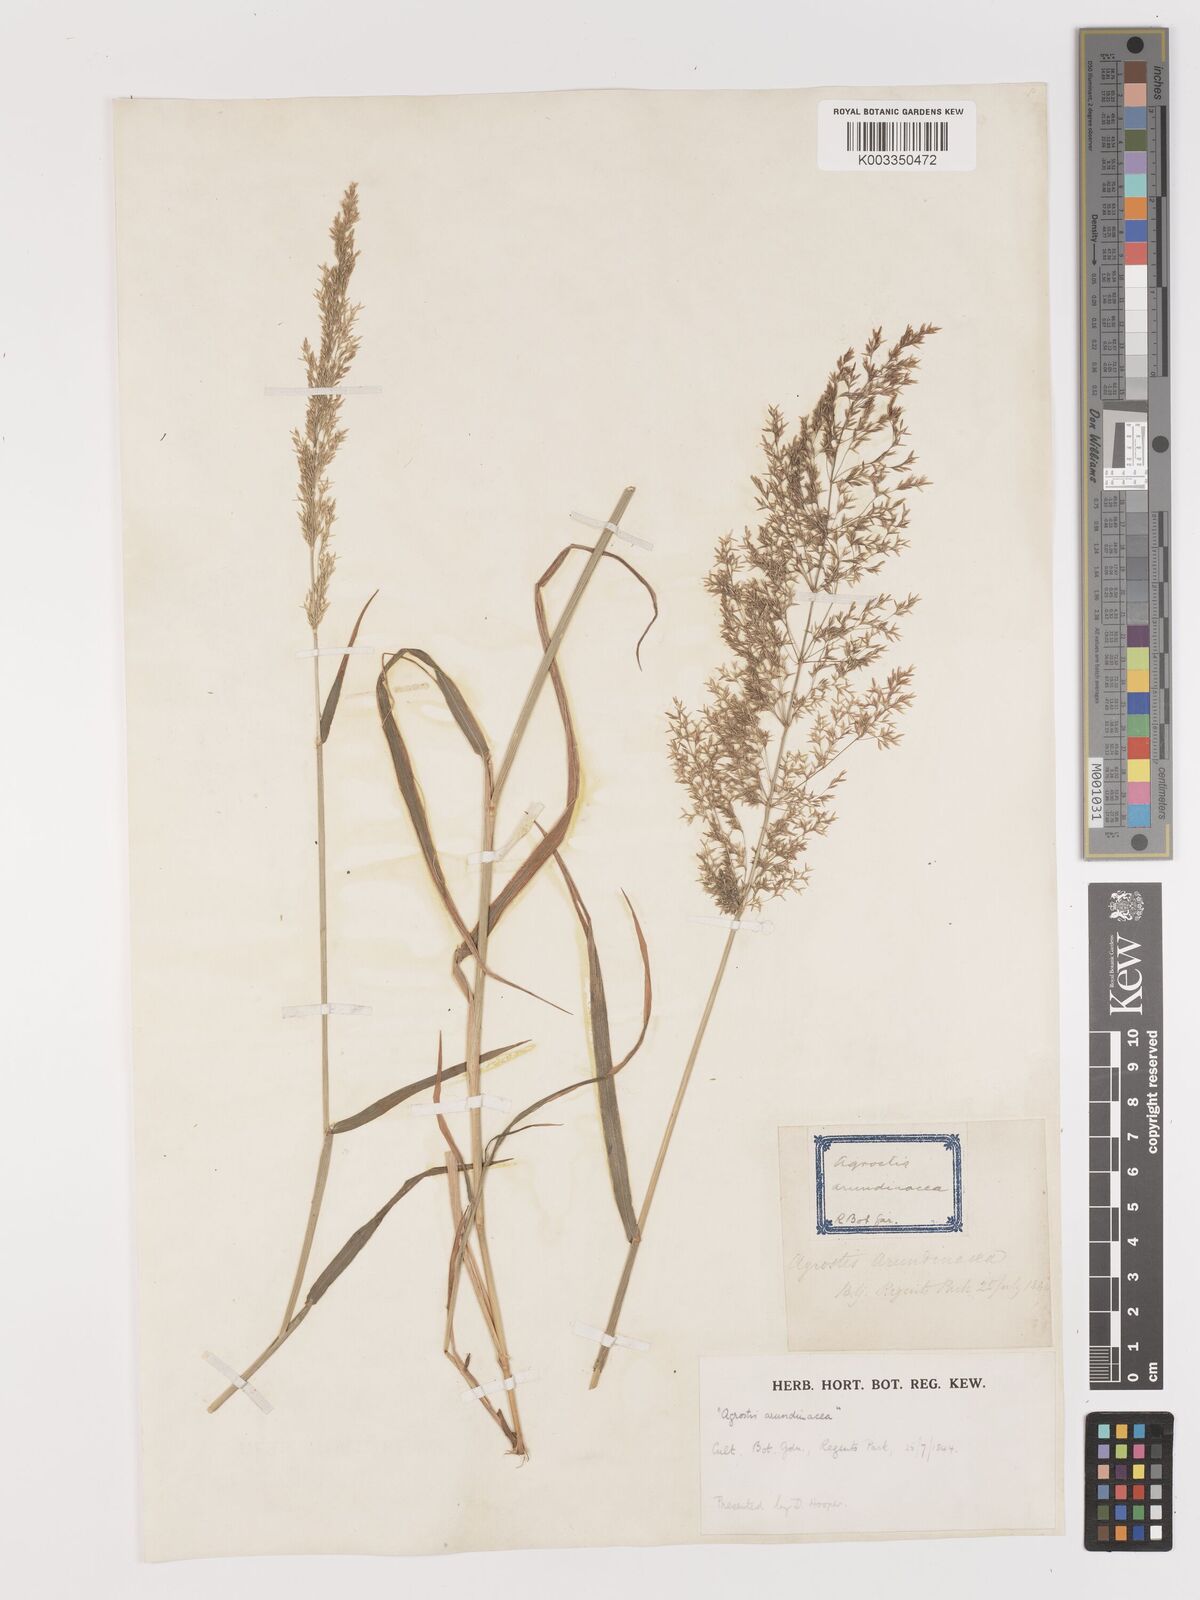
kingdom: Plantae
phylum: Tracheophyta
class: Liliopsida
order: Poales
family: Poaceae
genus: Agrostis
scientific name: Agrostis gigantea
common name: Black bent
